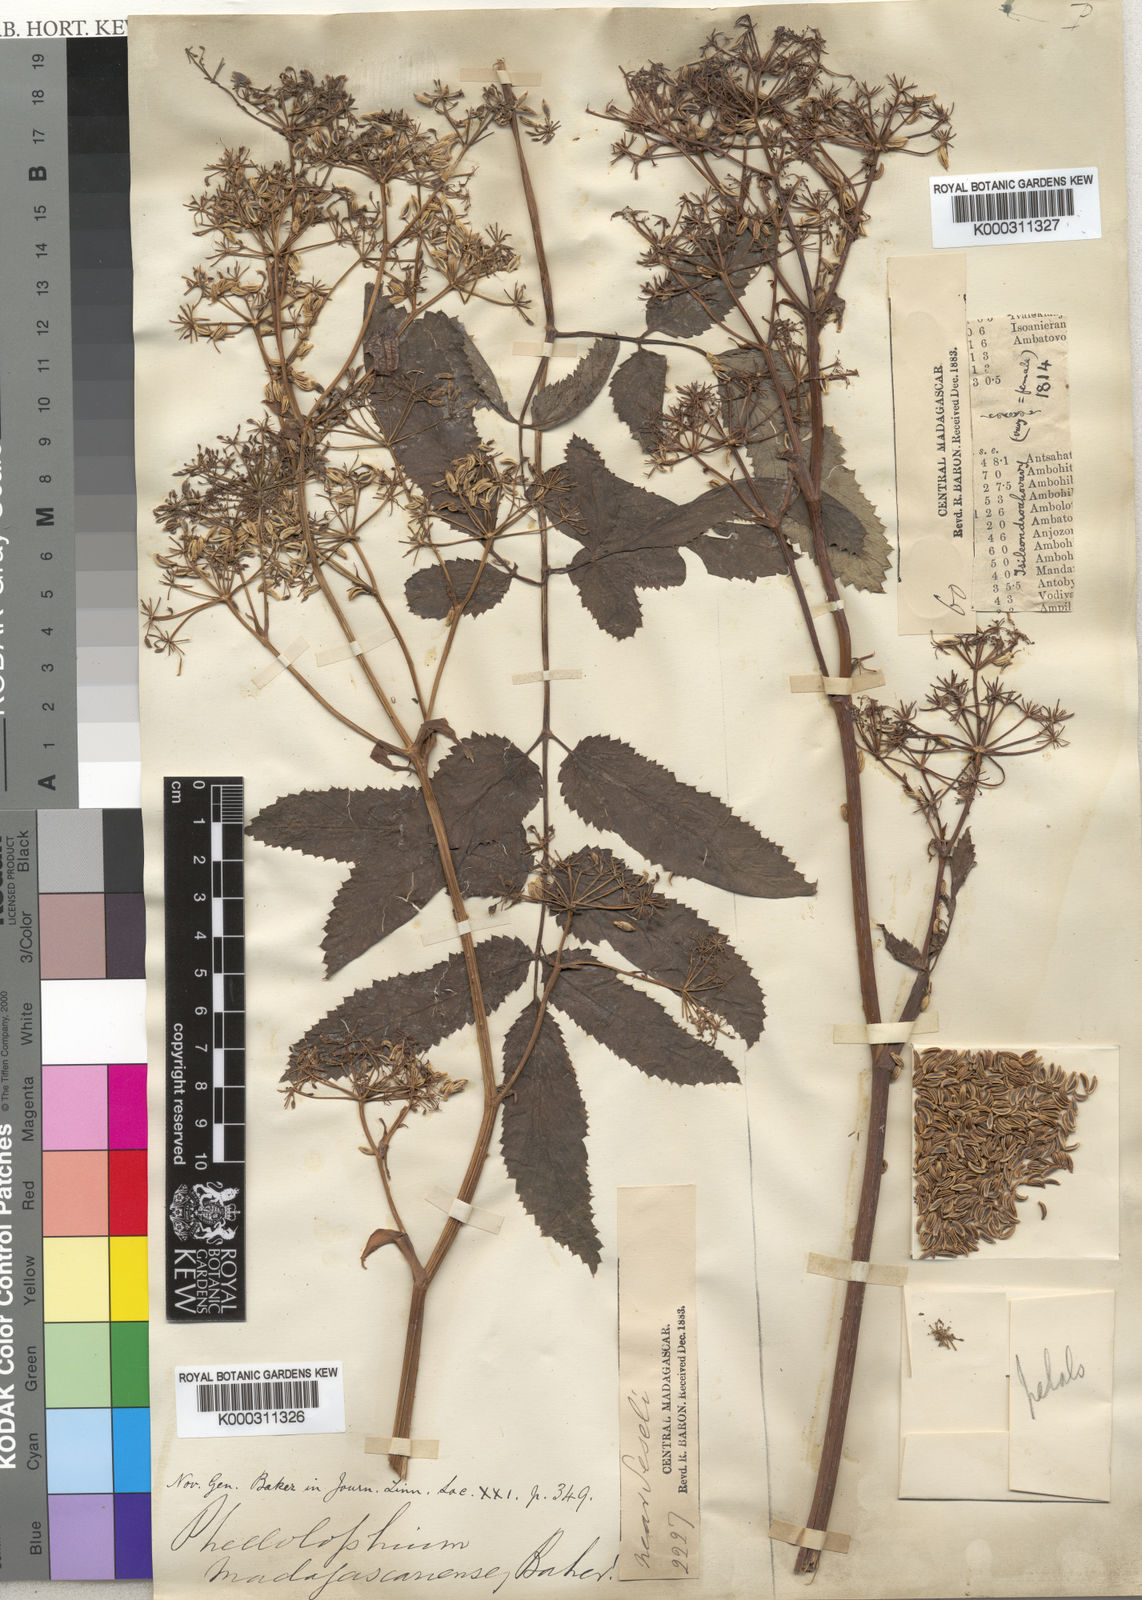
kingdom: Plantae
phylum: Tracheophyta
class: Magnoliopsida
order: Apiales
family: Apiaceae
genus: Phellolophium
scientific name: Phellolophium madagascariense
